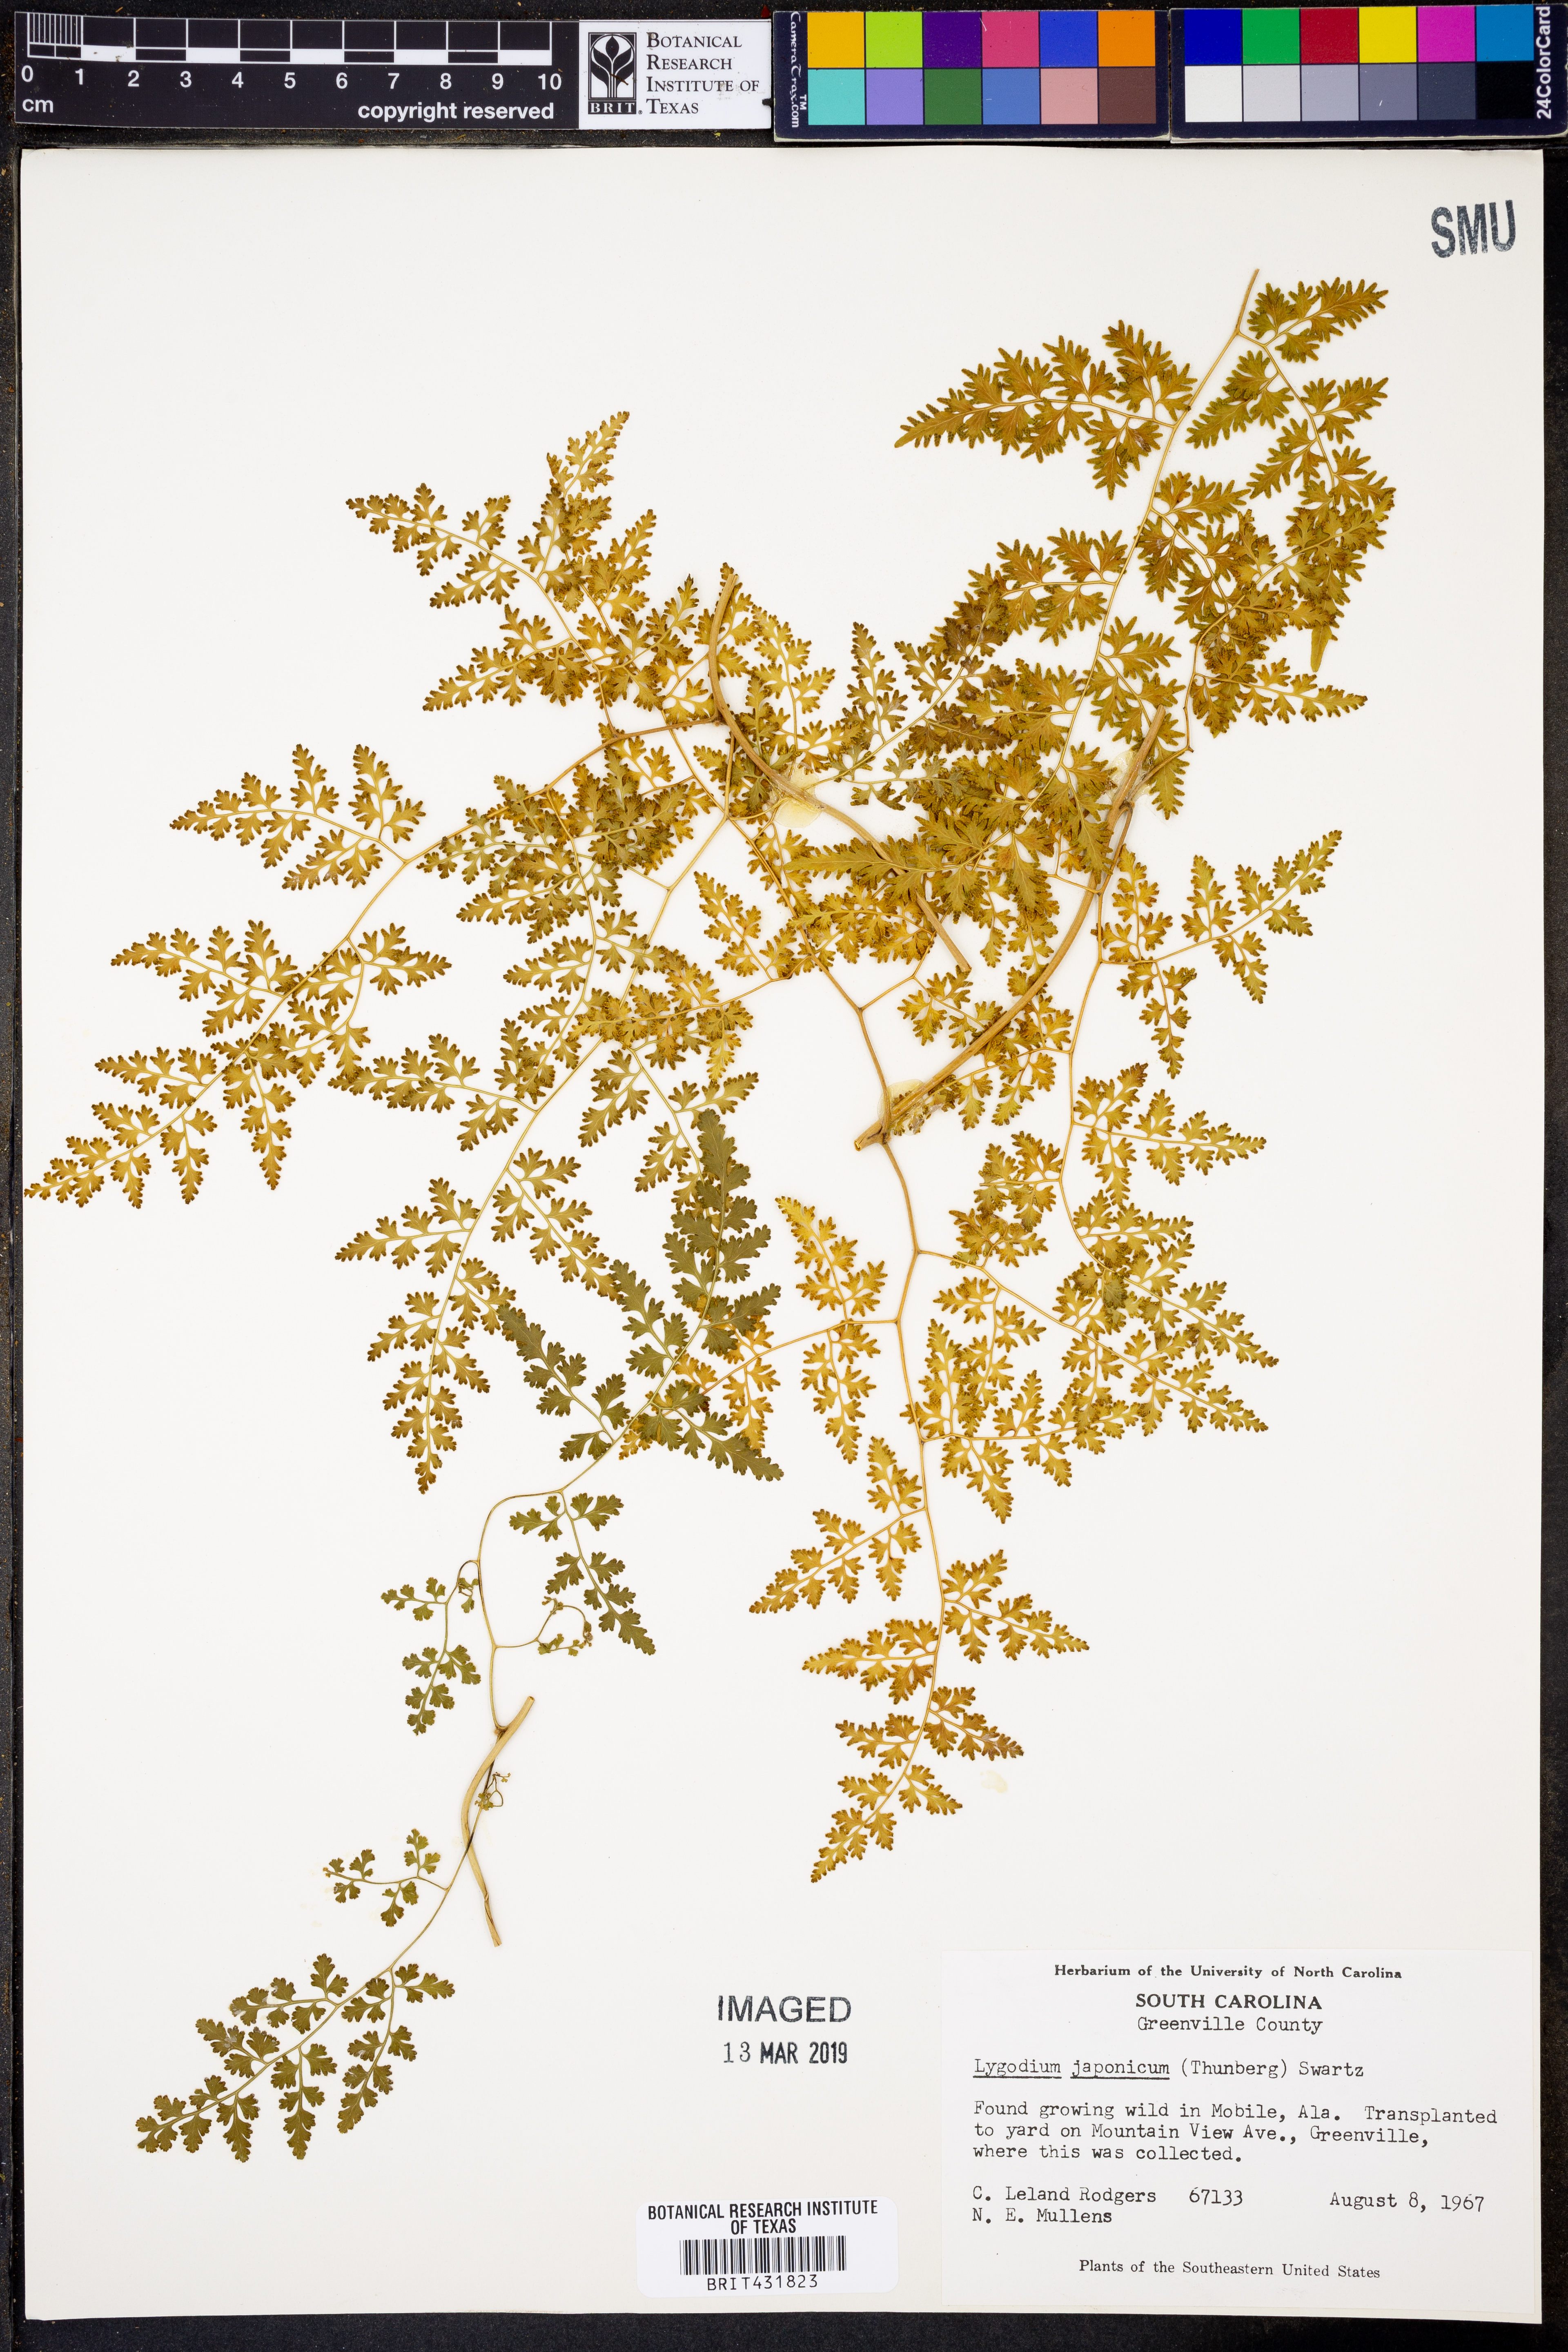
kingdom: Plantae
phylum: Tracheophyta
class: Polypodiopsida
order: Schizaeales
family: Lygodiaceae
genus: Lygodium
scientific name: Lygodium japonicum
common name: Japanese climbing fern
